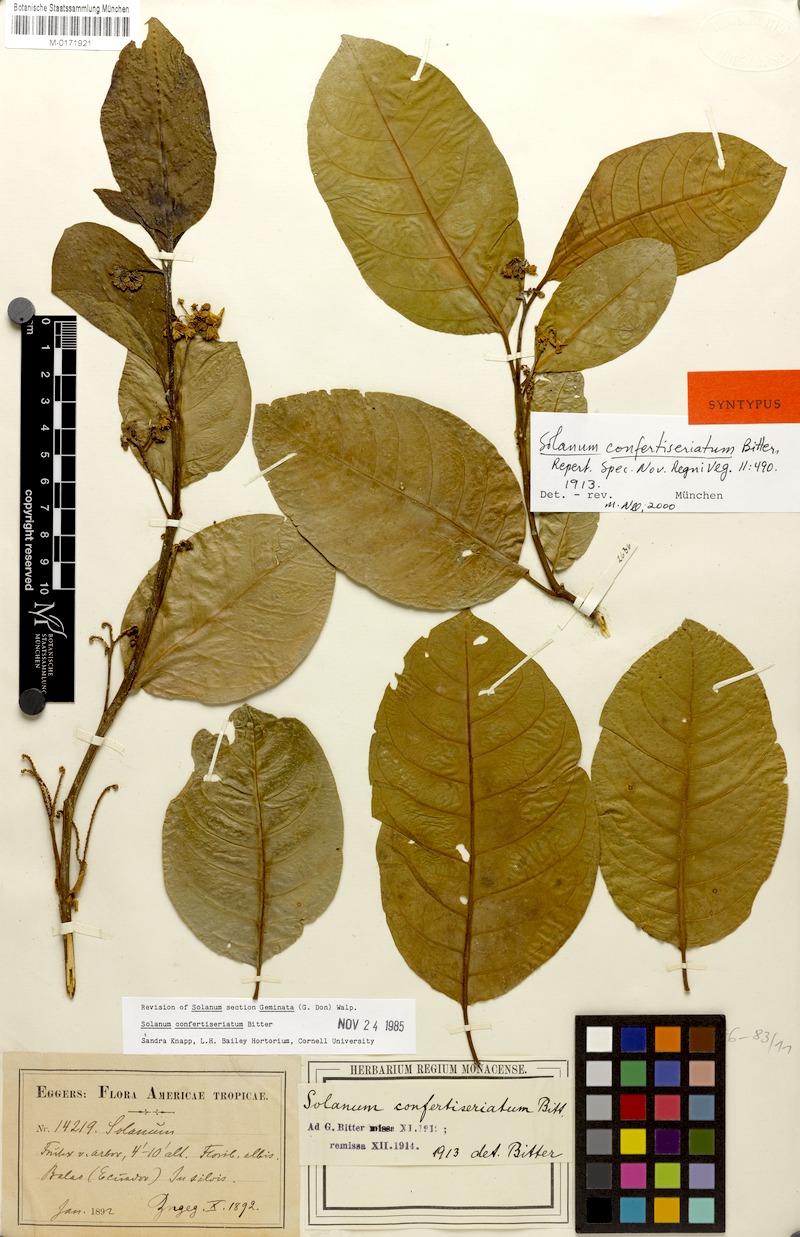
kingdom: Plantae
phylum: Tracheophyta
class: Magnoliopsida
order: Solanales
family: Solanaceae
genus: Solanum
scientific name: Solanum rovirosanum
